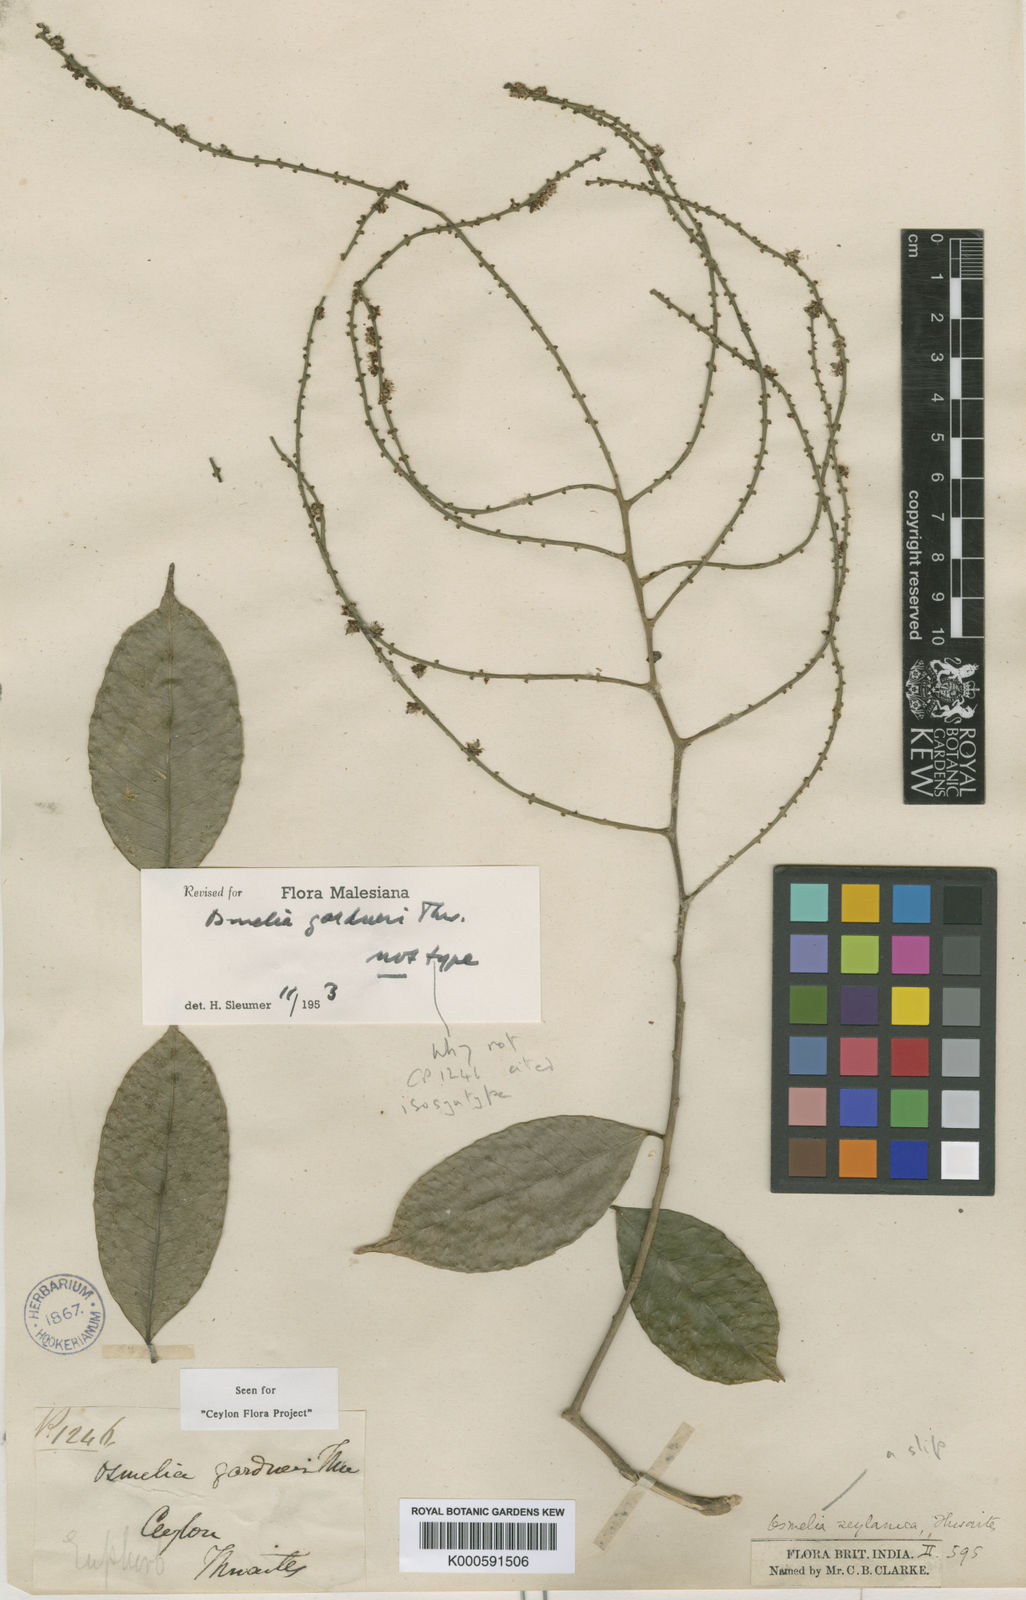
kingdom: Plantae
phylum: Tracheophyta
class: Magnoliopsida
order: Malpighiales
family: Salicaceae
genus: Osmelia
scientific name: Osmelia gardneri
